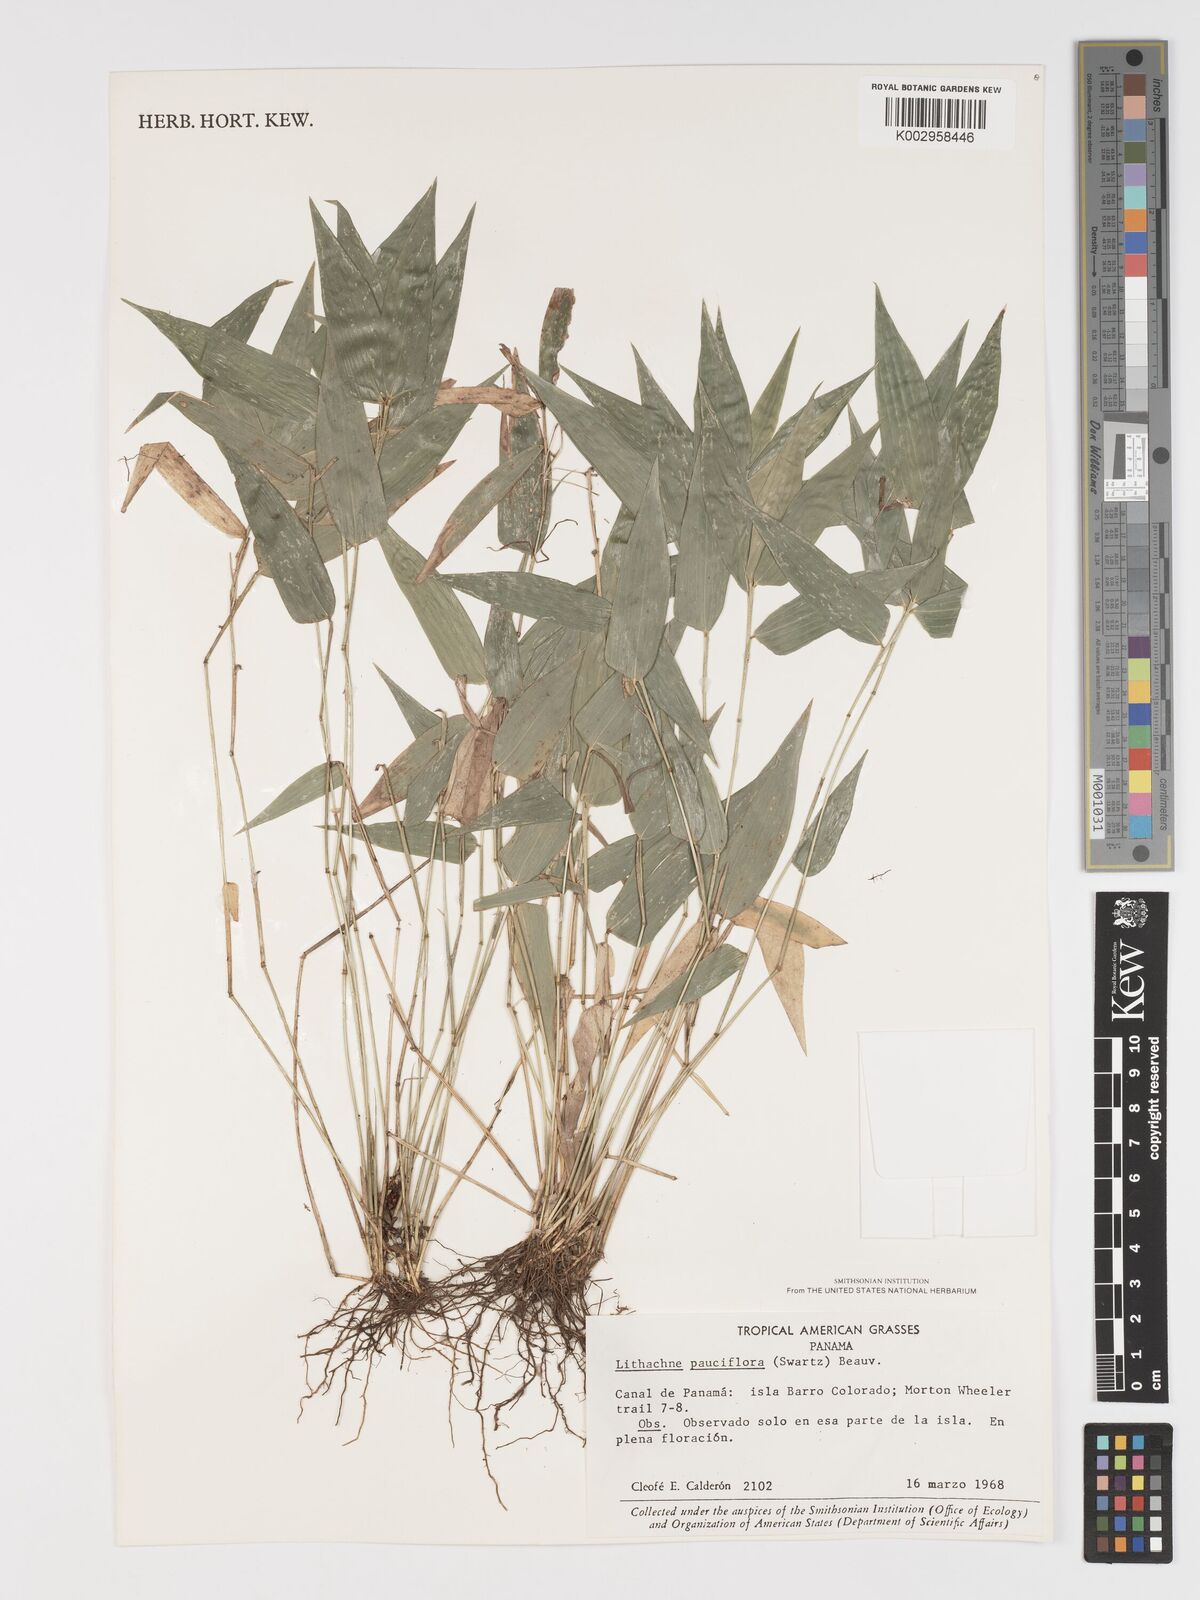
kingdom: Plantae
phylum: Tracheophyta
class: Liliopsida
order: Poales
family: Poaceae
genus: Lithachne
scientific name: Lithachne pauciflora
